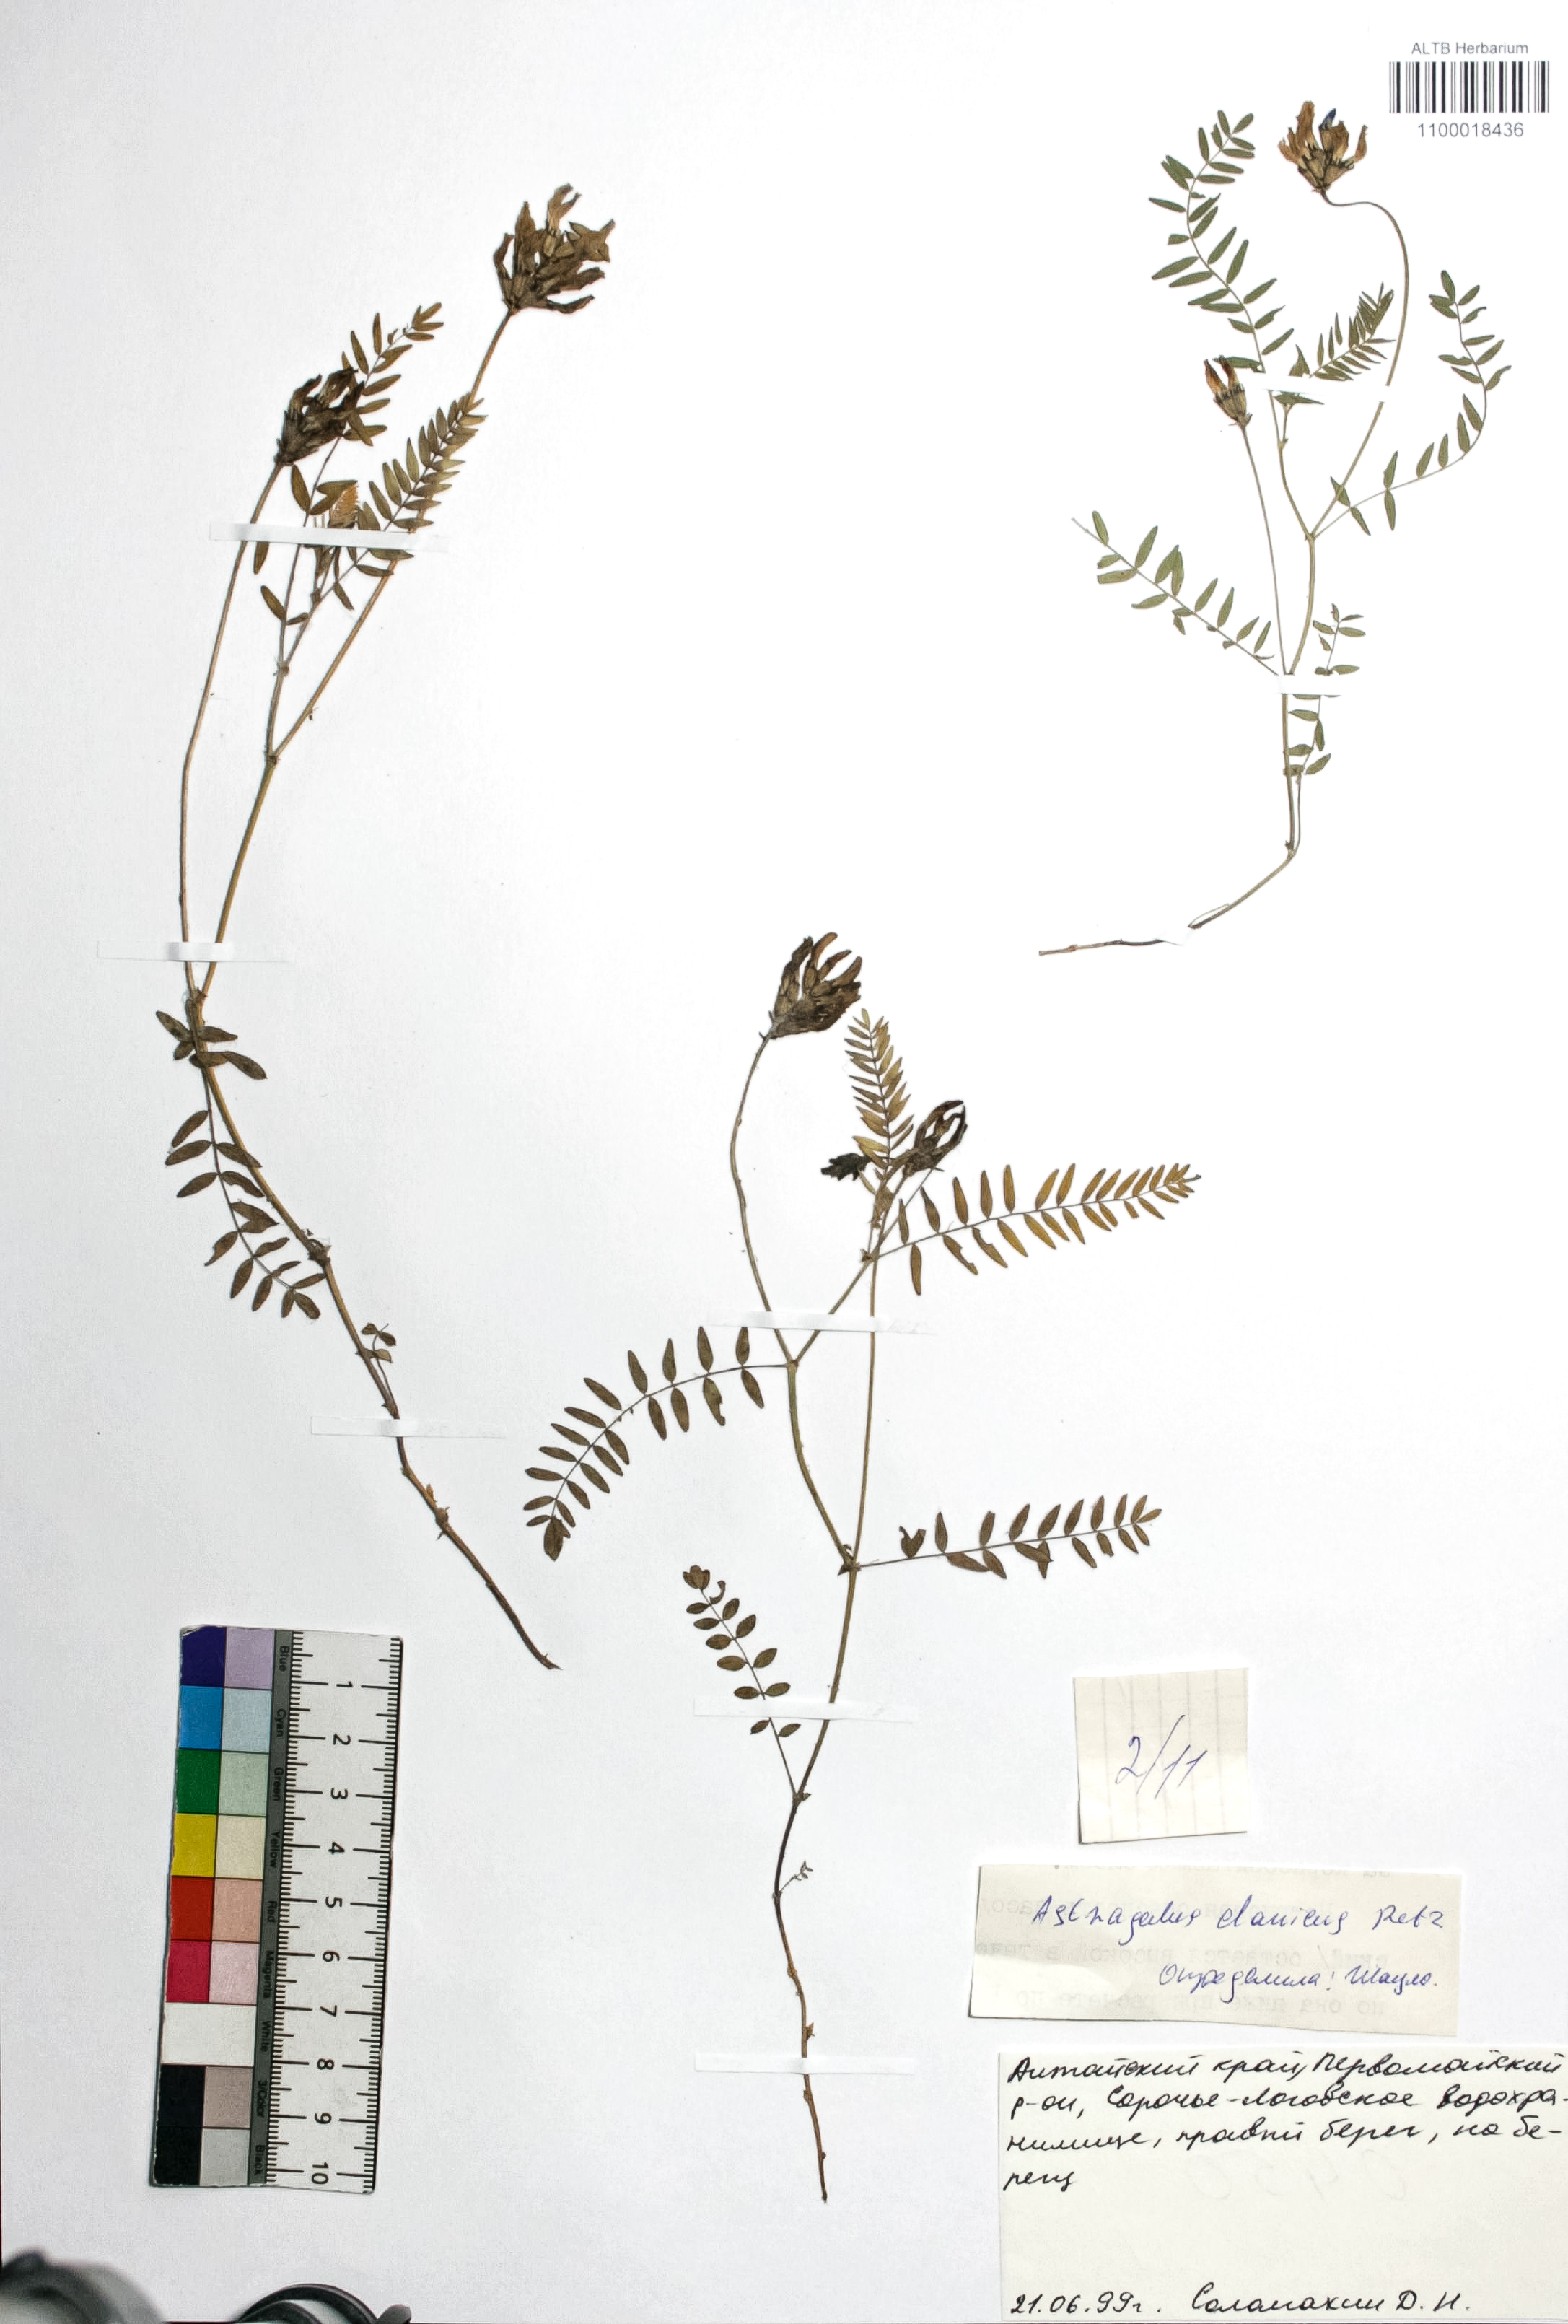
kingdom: Plantae
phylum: Tracheophyta
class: Magnoliopsida
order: Fabales
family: Fabaceae
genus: Astragalus
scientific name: Astragalus danicus
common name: Purple milk-vetch
